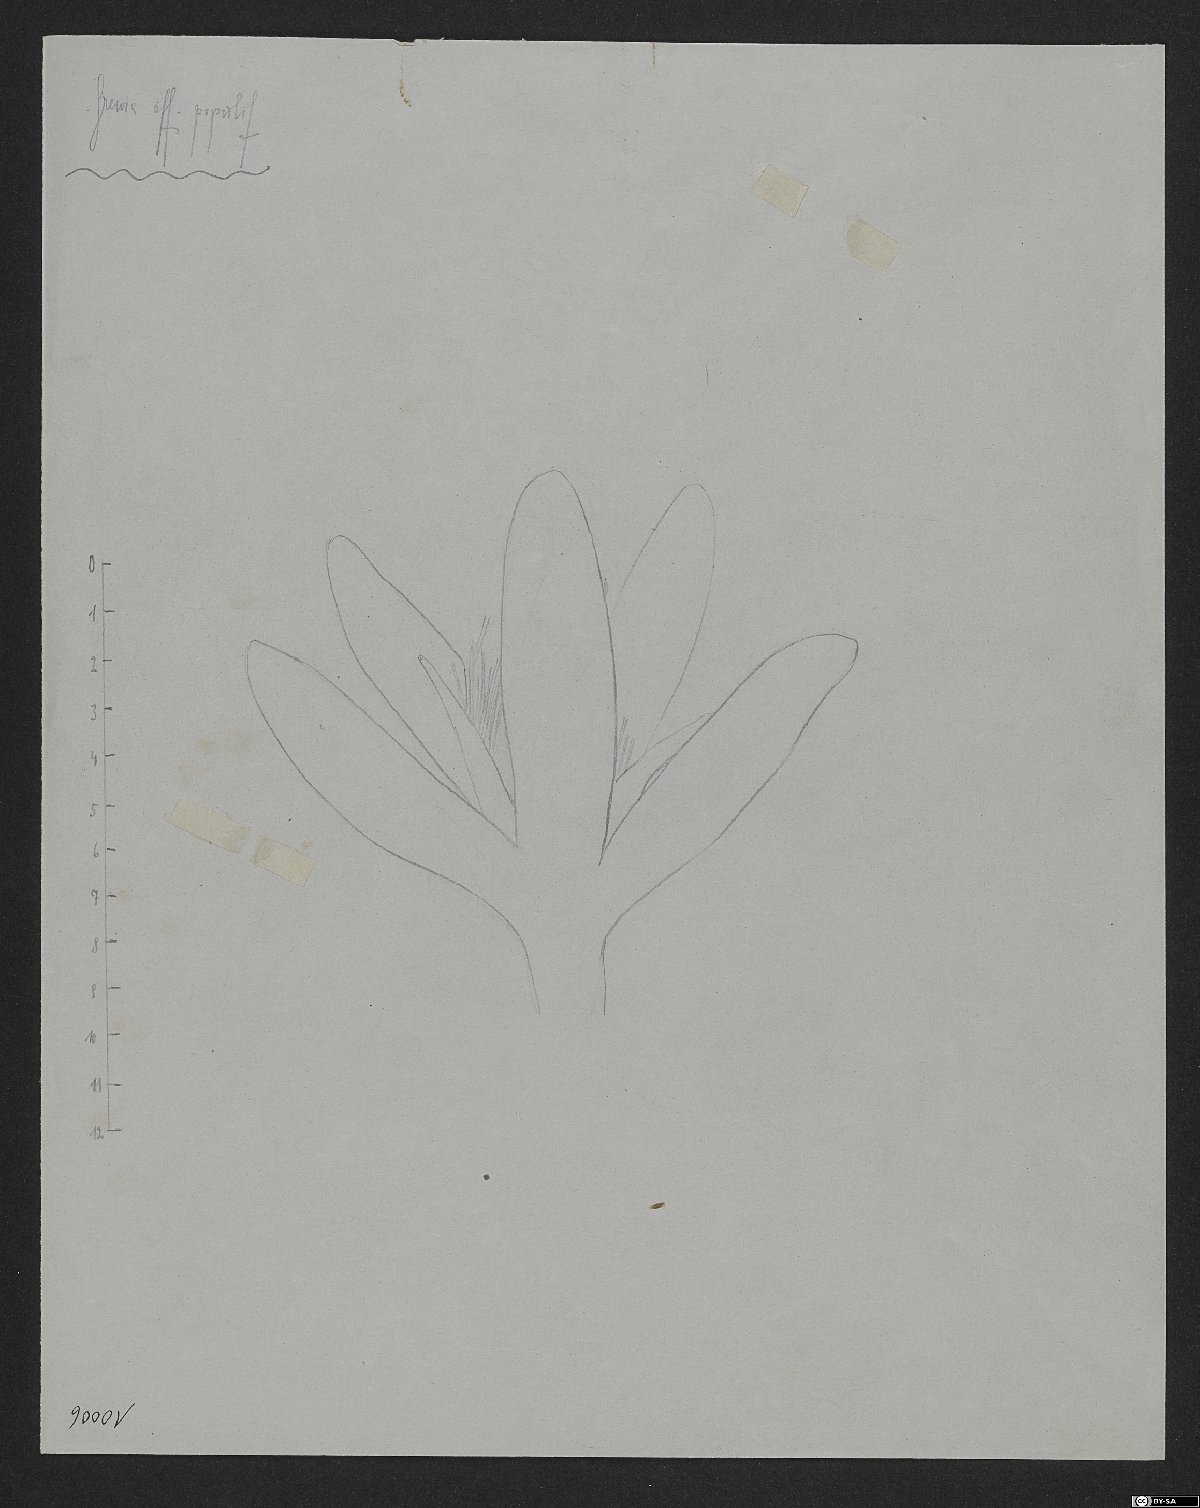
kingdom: Plantae
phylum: Tracheophyta
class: Magnoliopsida
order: Malvales
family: Malvaceae
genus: Grewia
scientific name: Grewia tenax
